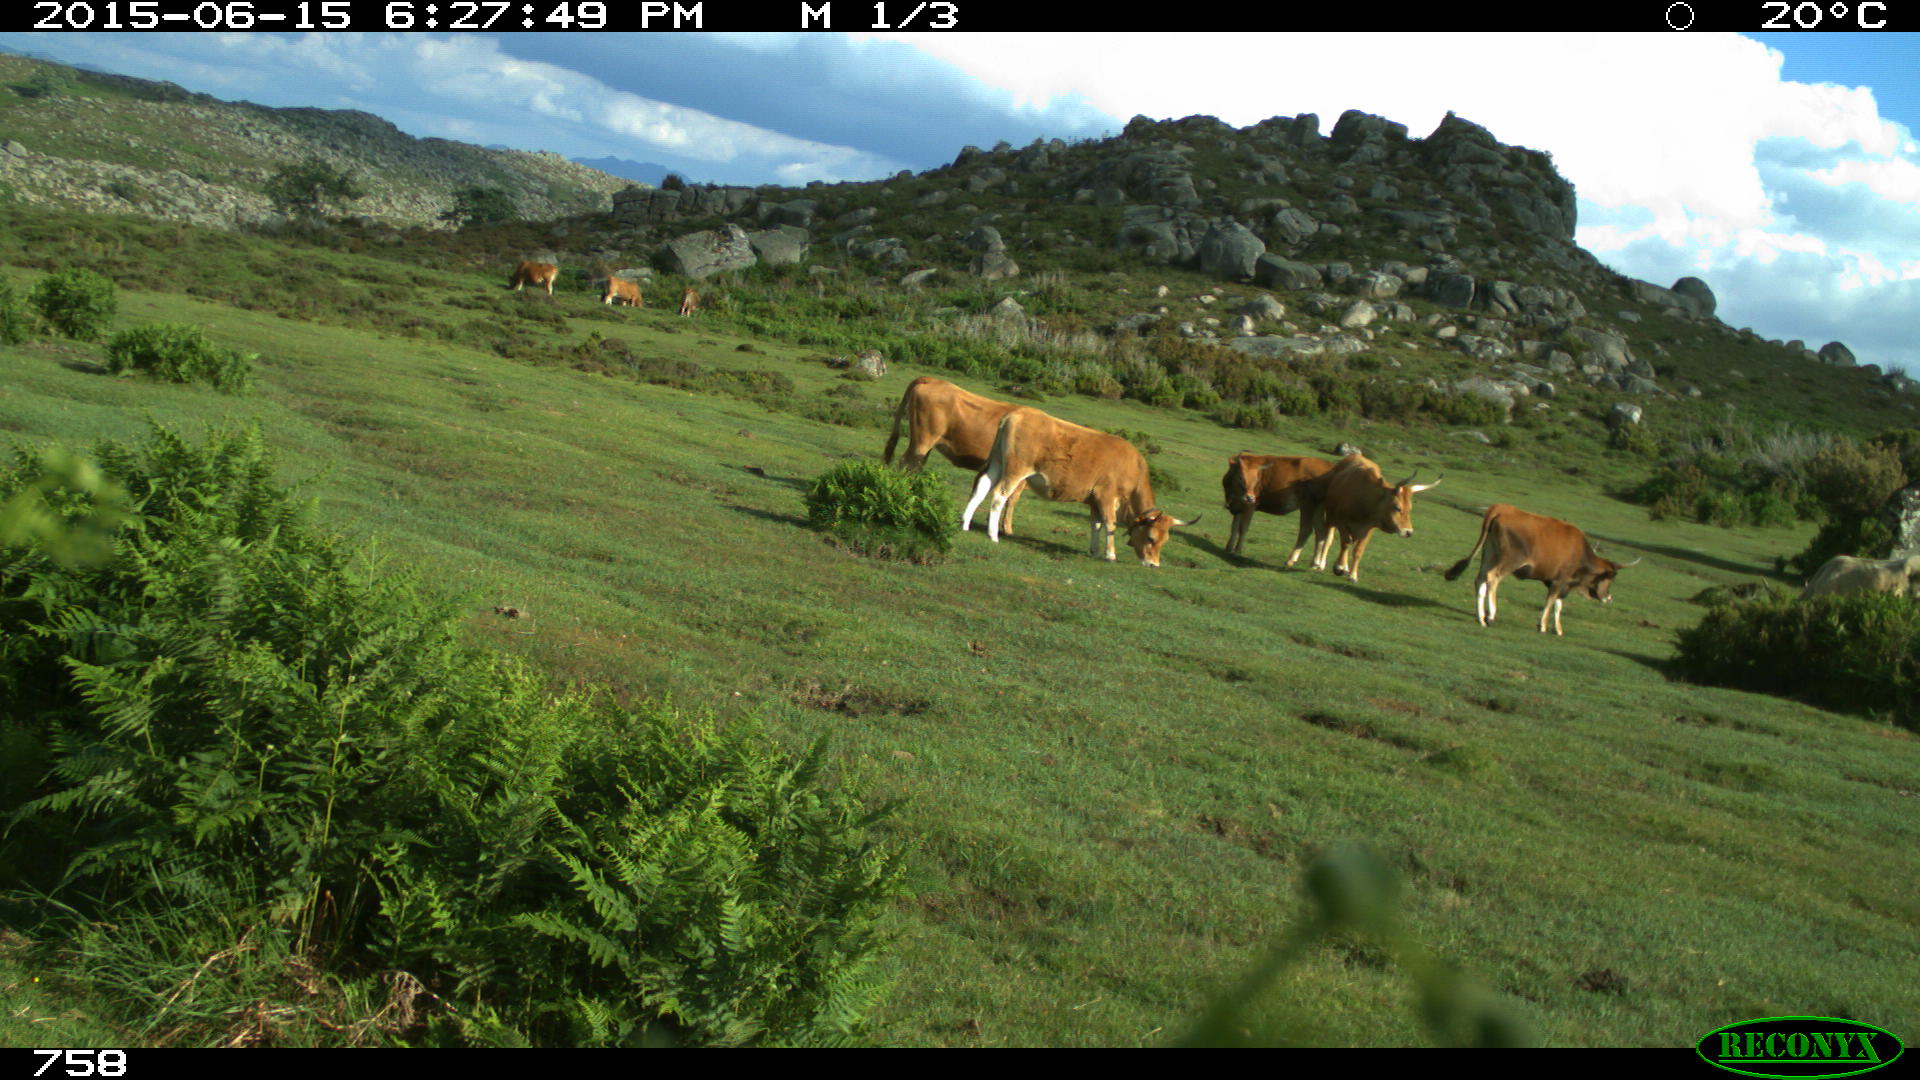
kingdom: Animalia
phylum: Chordata
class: Mammalia
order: Artiodactyla
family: Bovidae
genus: Bos
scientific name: Bos taurus
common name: Domesticated cattle
